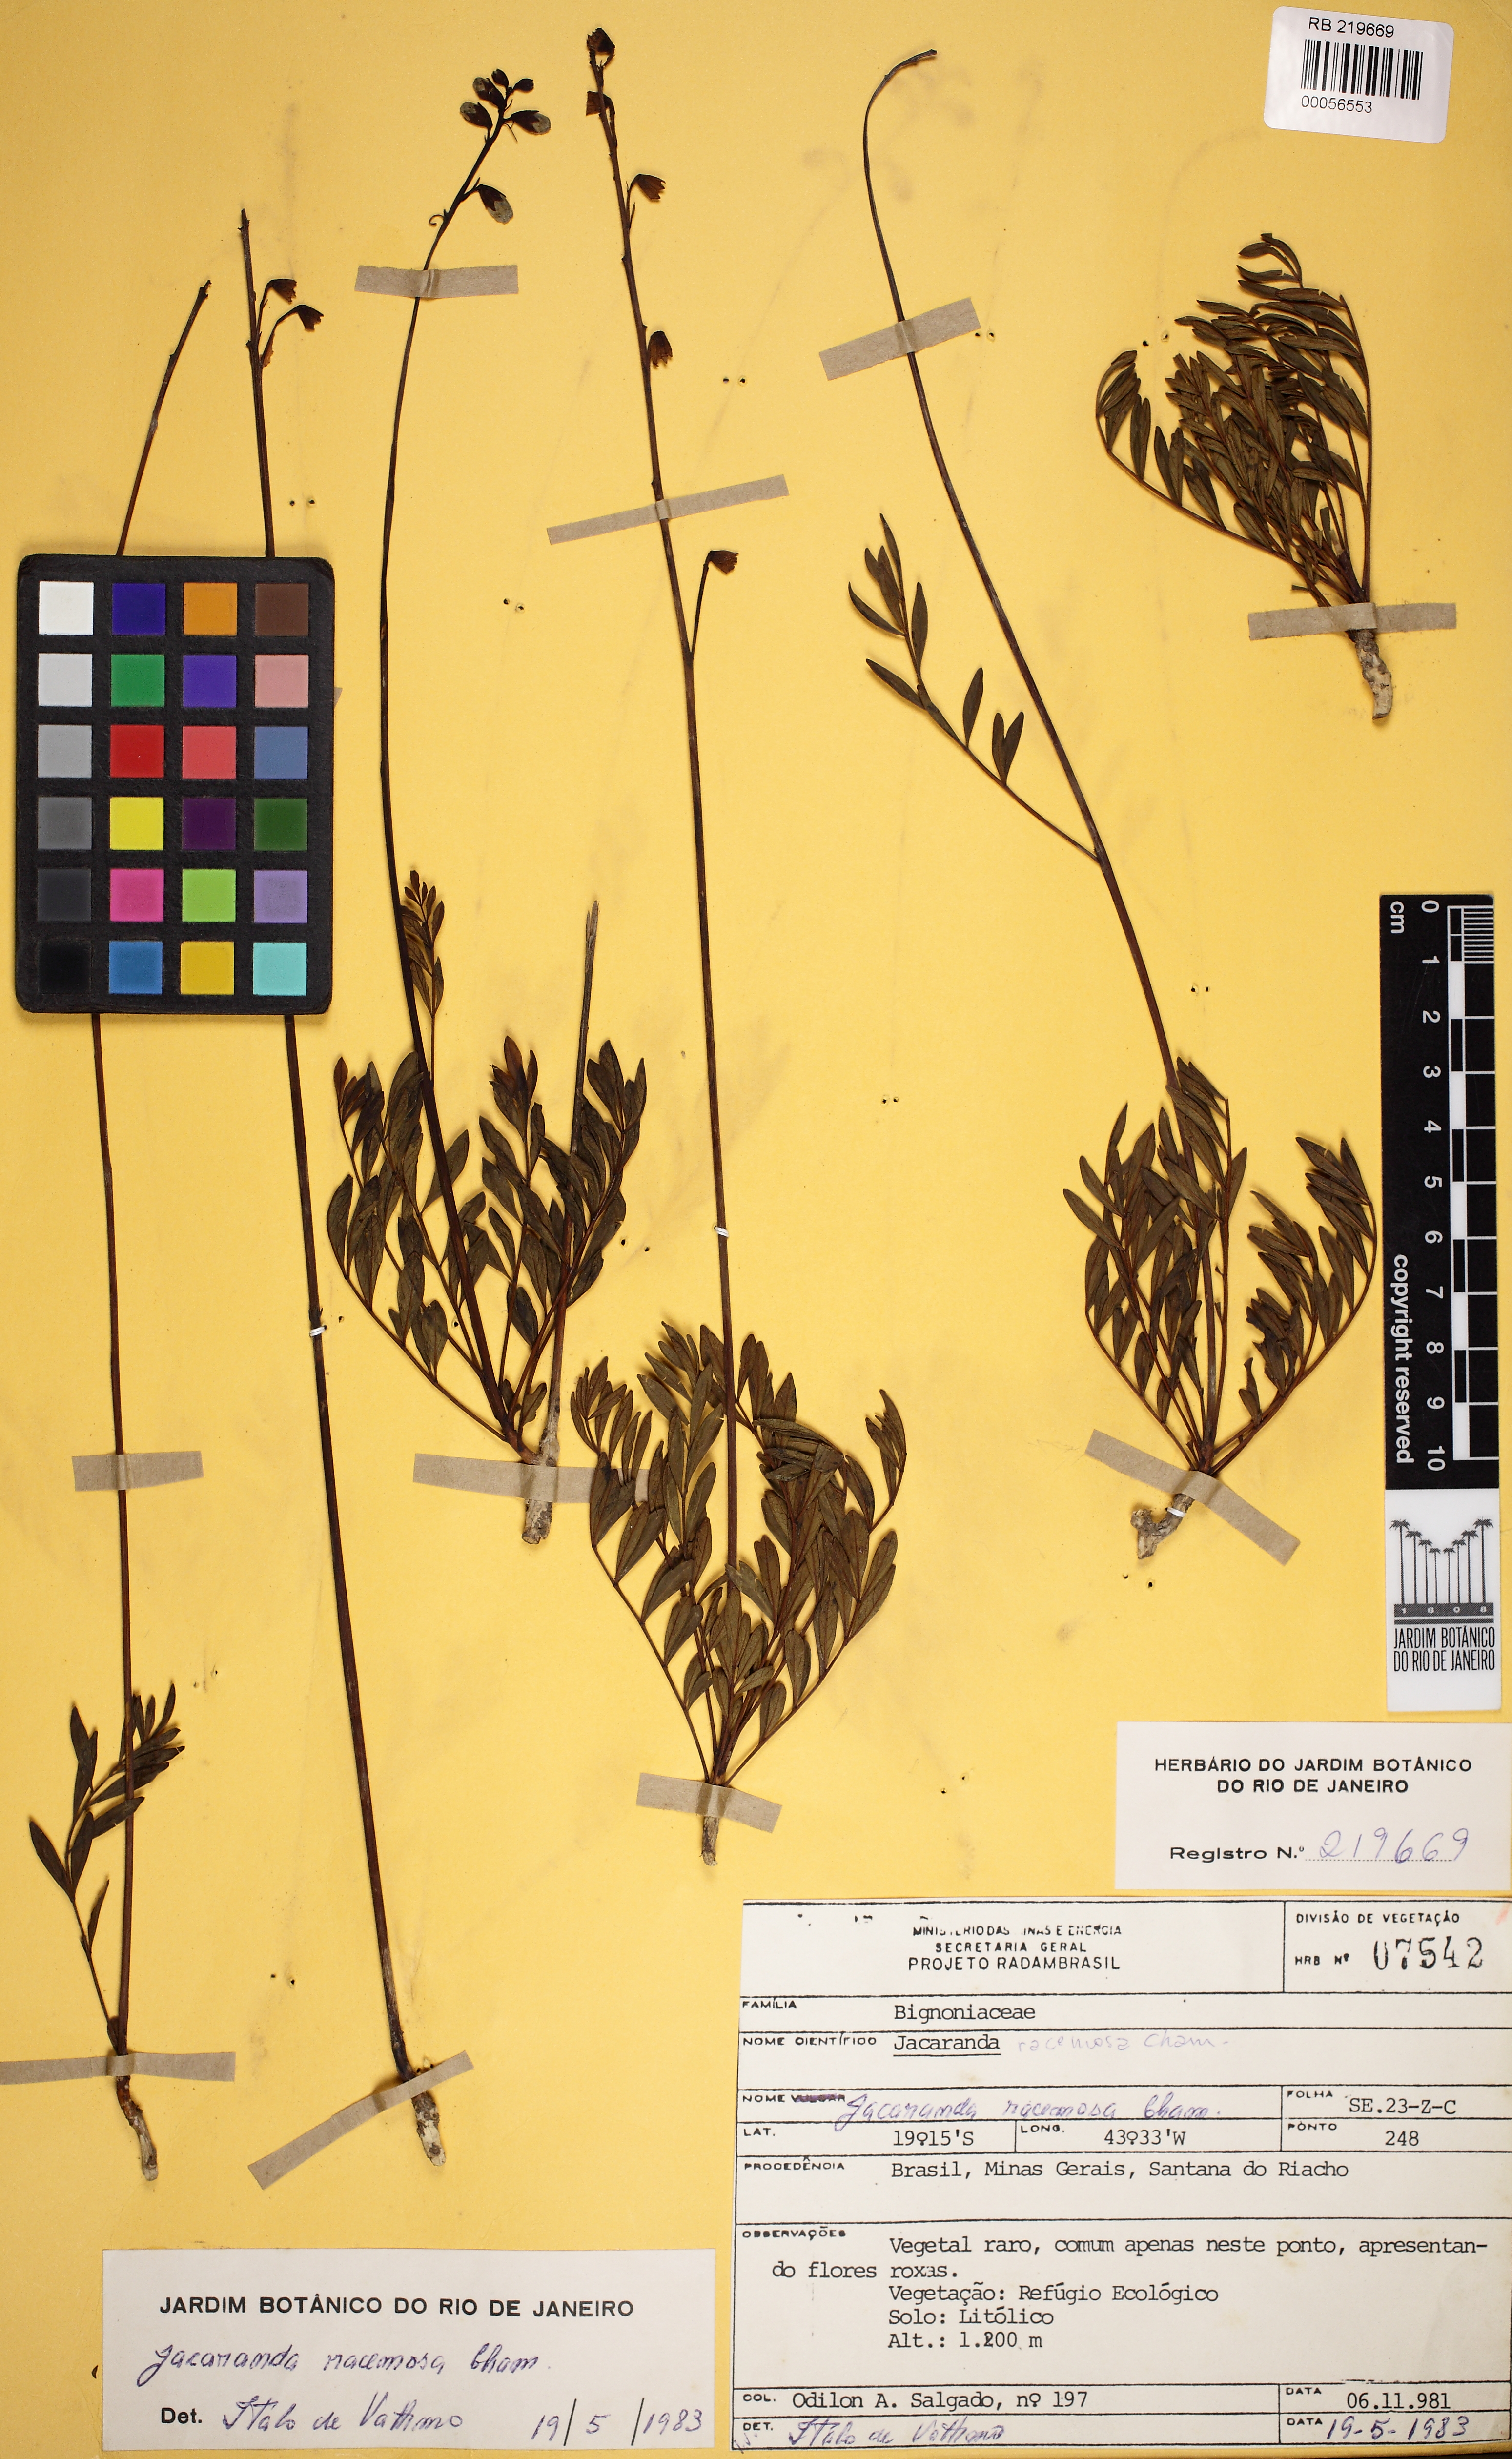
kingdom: Plantae
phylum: Tracheophyta
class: Magnoliopsida
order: Lamiales
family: Bignoniaceae
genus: Jacaranda
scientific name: Jacaranda racemosa
